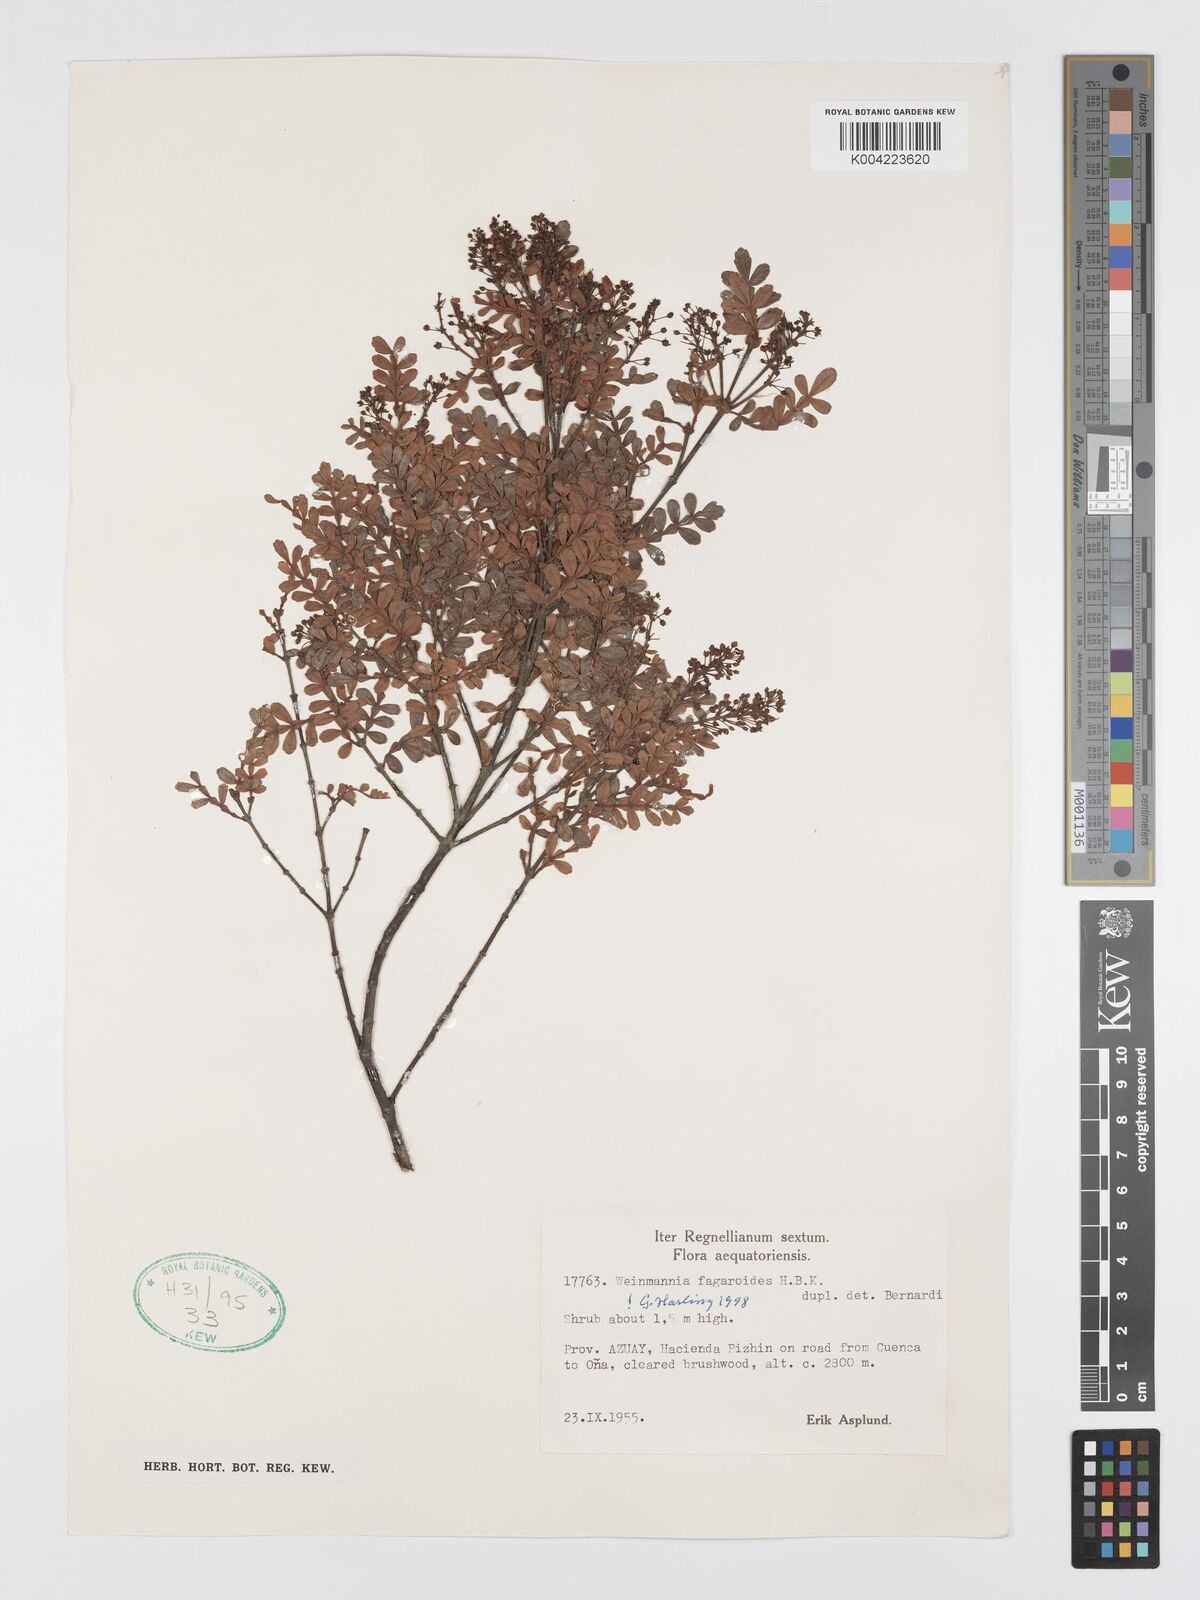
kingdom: Plantae
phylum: Tracheophyta
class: Magnoliopsida
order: Oxalidales
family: Cunoniaceae
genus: Weinmannia
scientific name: Weinmannia fagaroides
